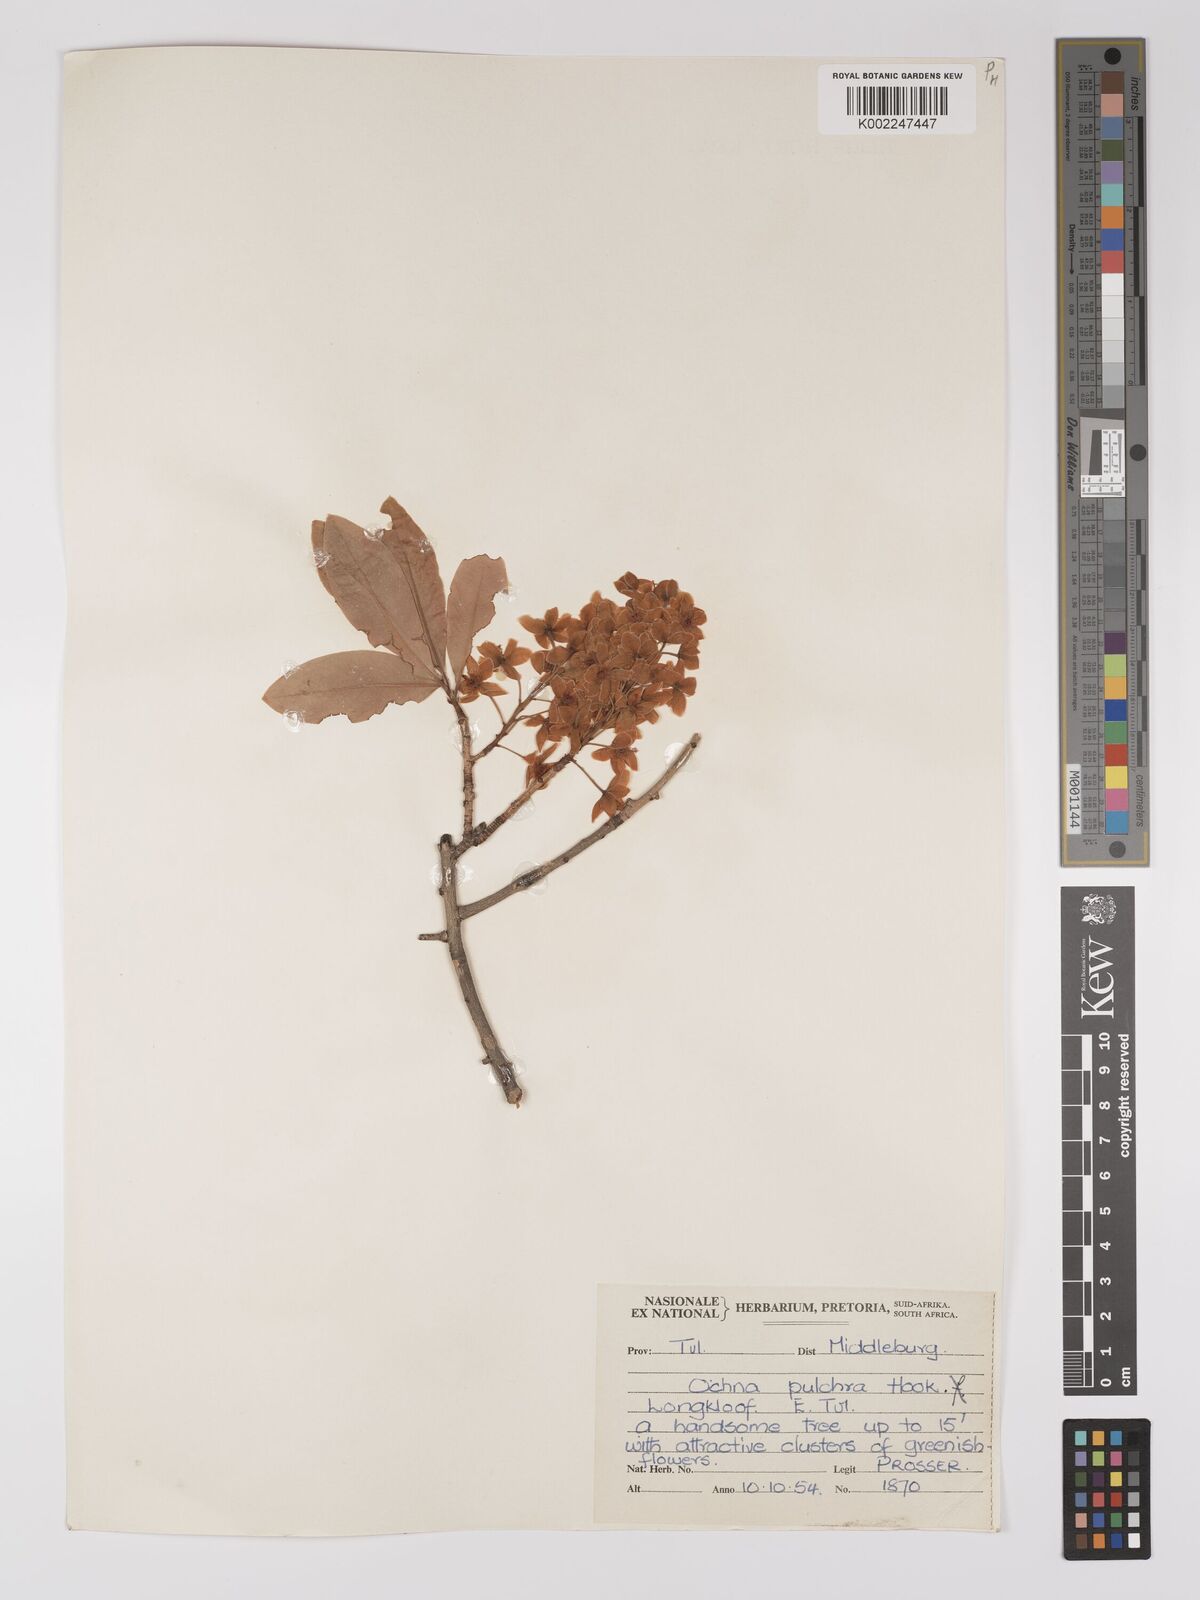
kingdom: Plantae
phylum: Tracheophyta
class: Magnoliopsida
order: Malpighiales
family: Ochnaceae
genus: Ochna
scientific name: Ochna pulchra
